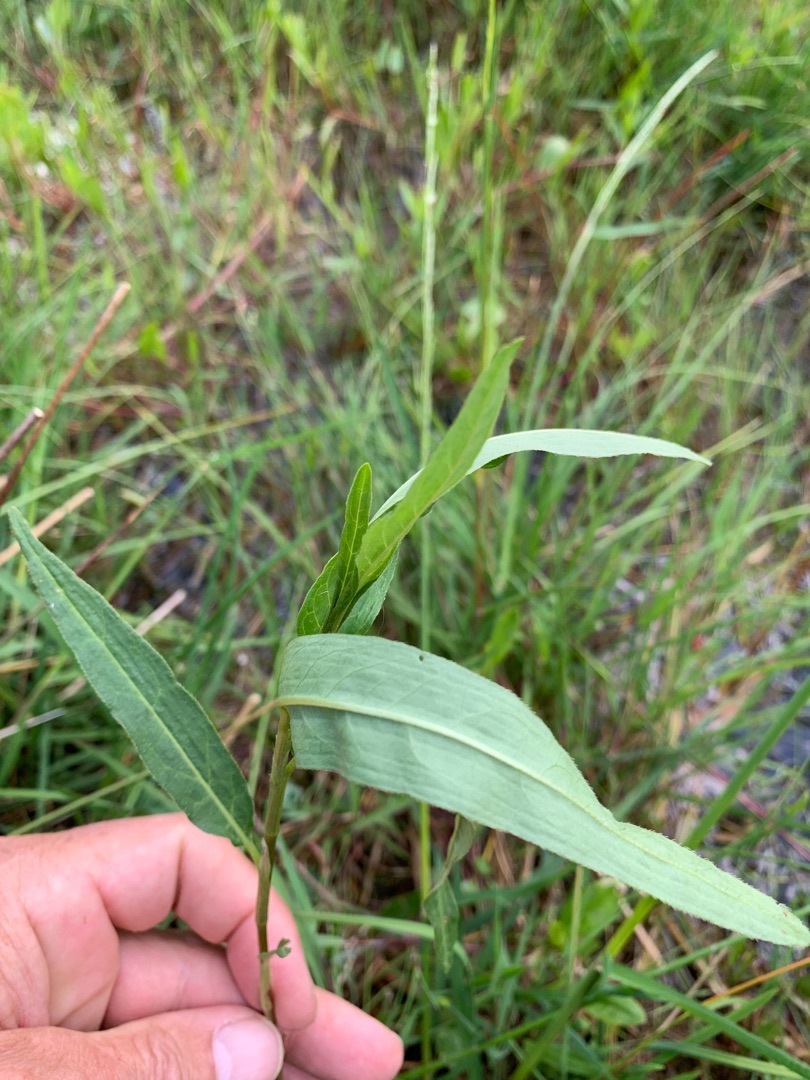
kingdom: Plantae
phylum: Tracheophyta
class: Magnoliopsida
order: Caryophyllales
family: Polygonaceae
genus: Persicaria
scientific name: Persicaria amphibia
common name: Vand-pileurt
